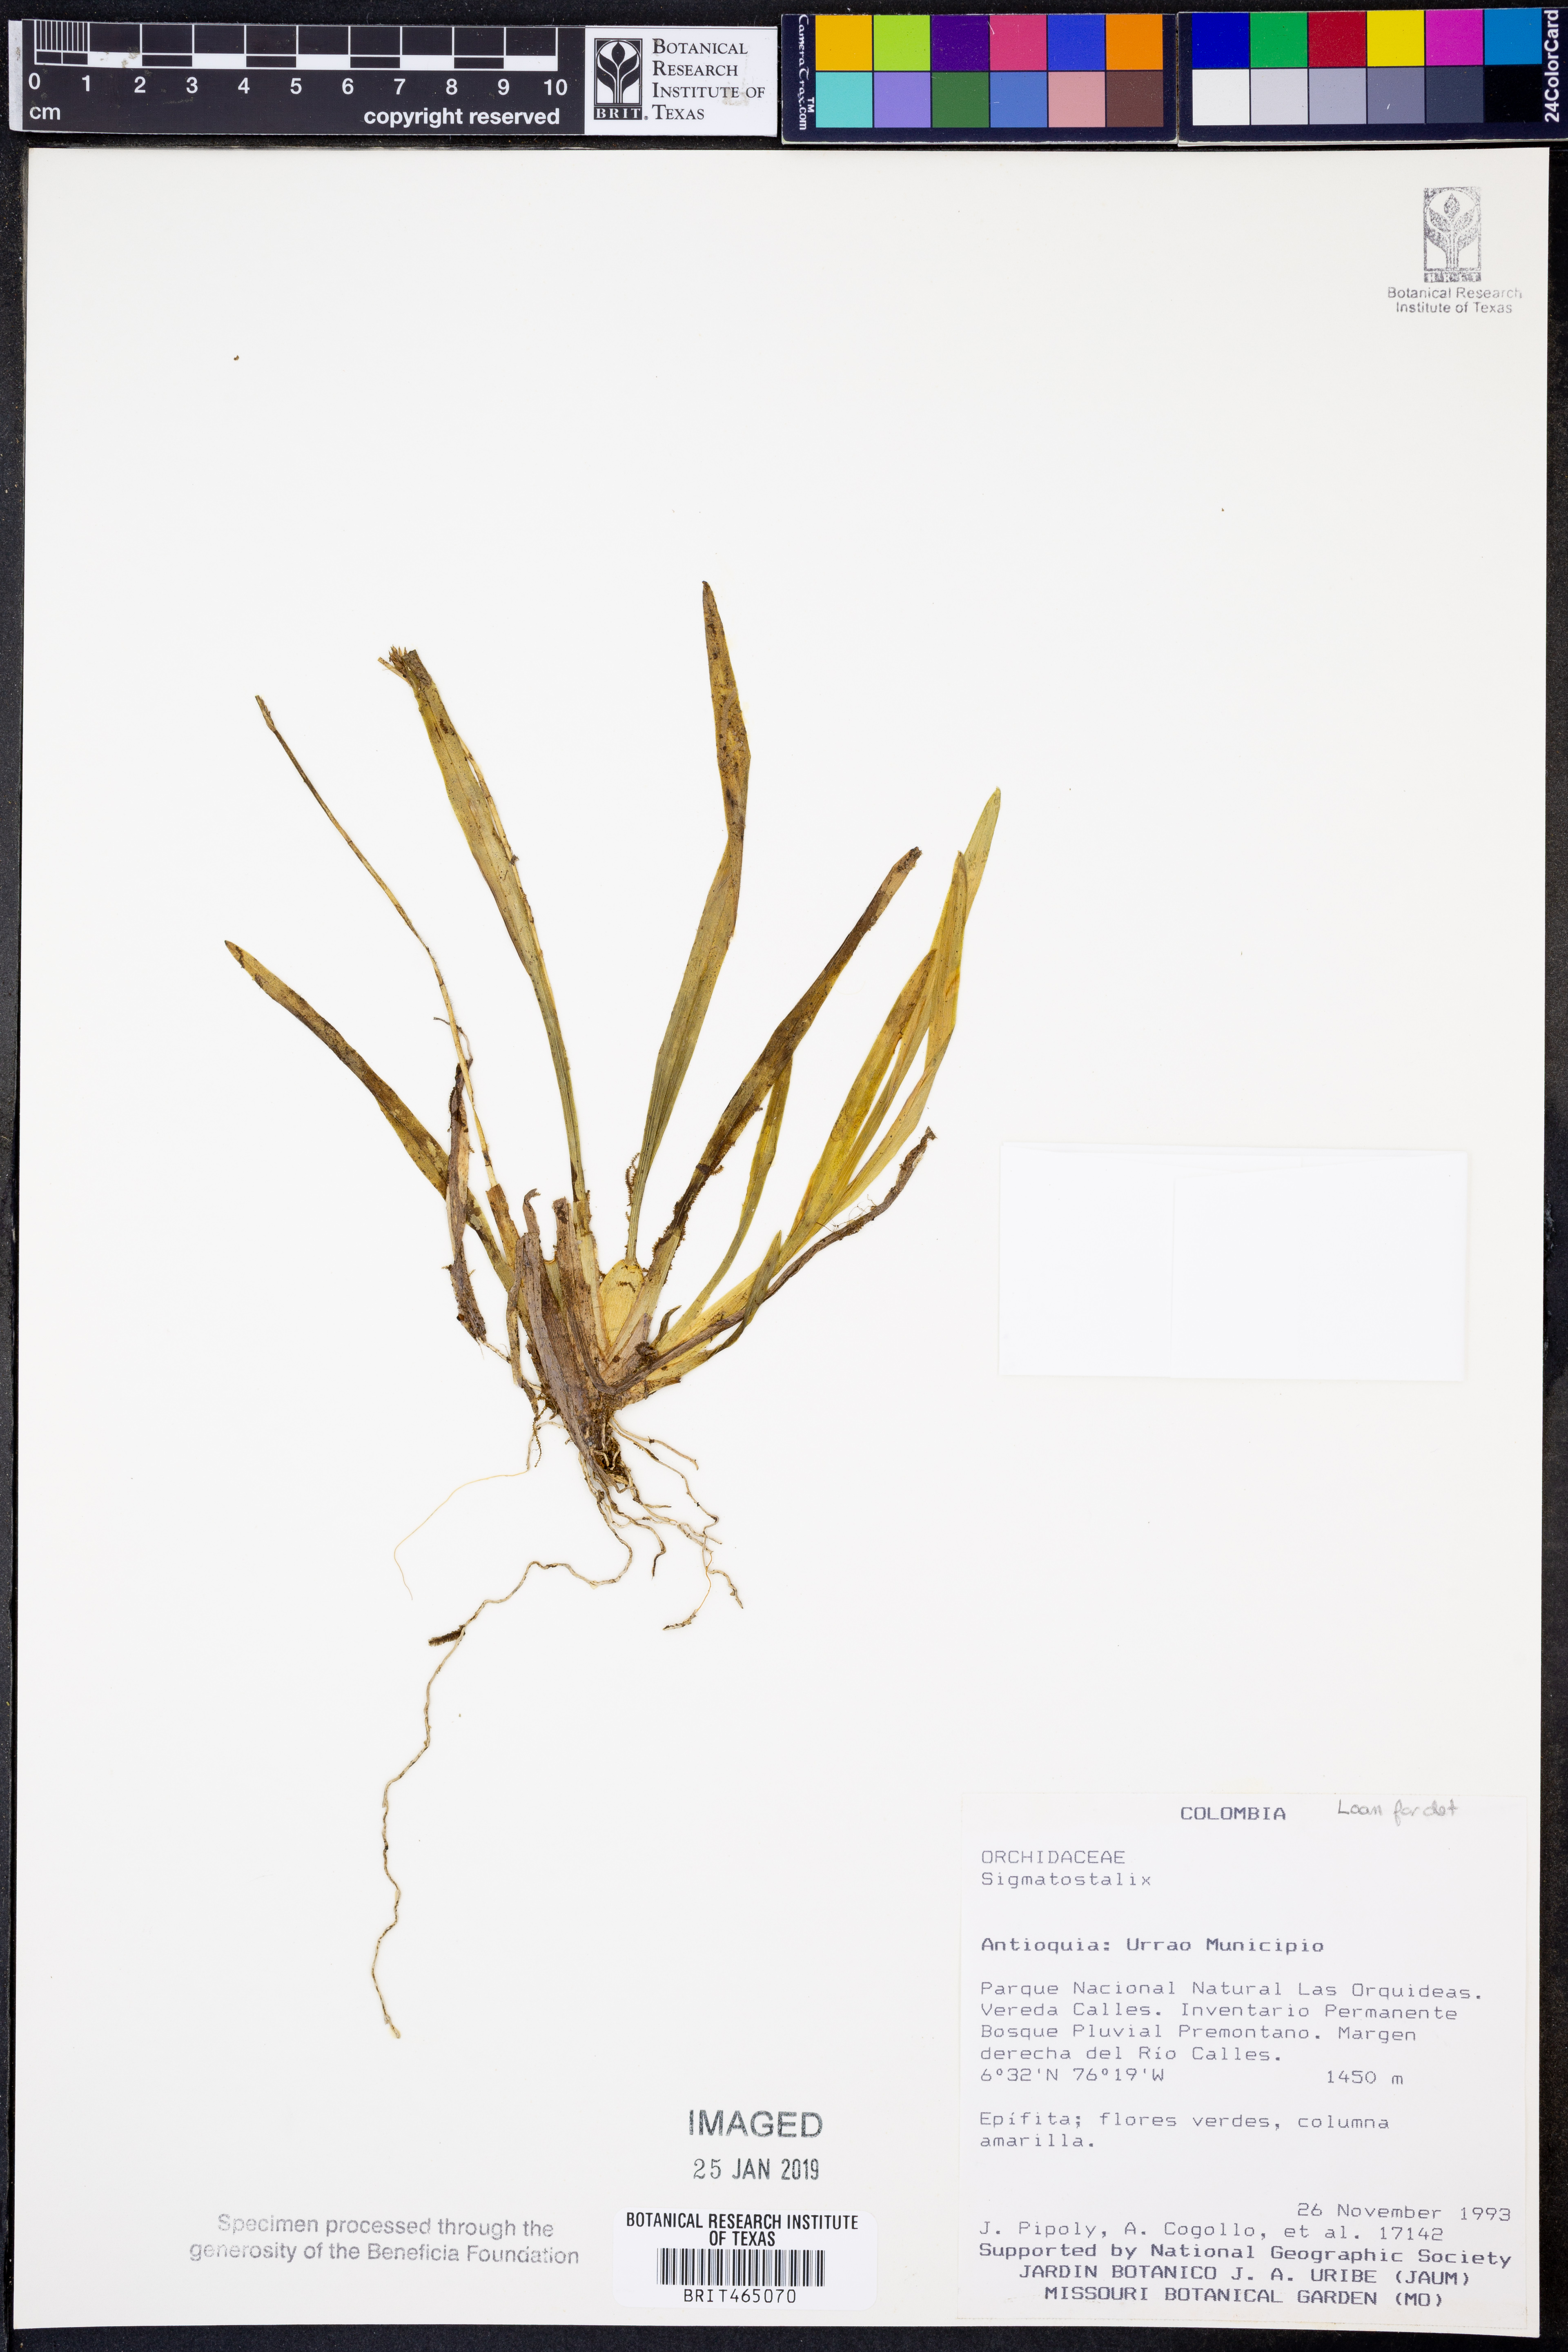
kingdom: Plantae
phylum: Tracheophyta
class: Liliopsida
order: Asparagales
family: Orchidaceae
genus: Oncidium
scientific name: Oncidium
